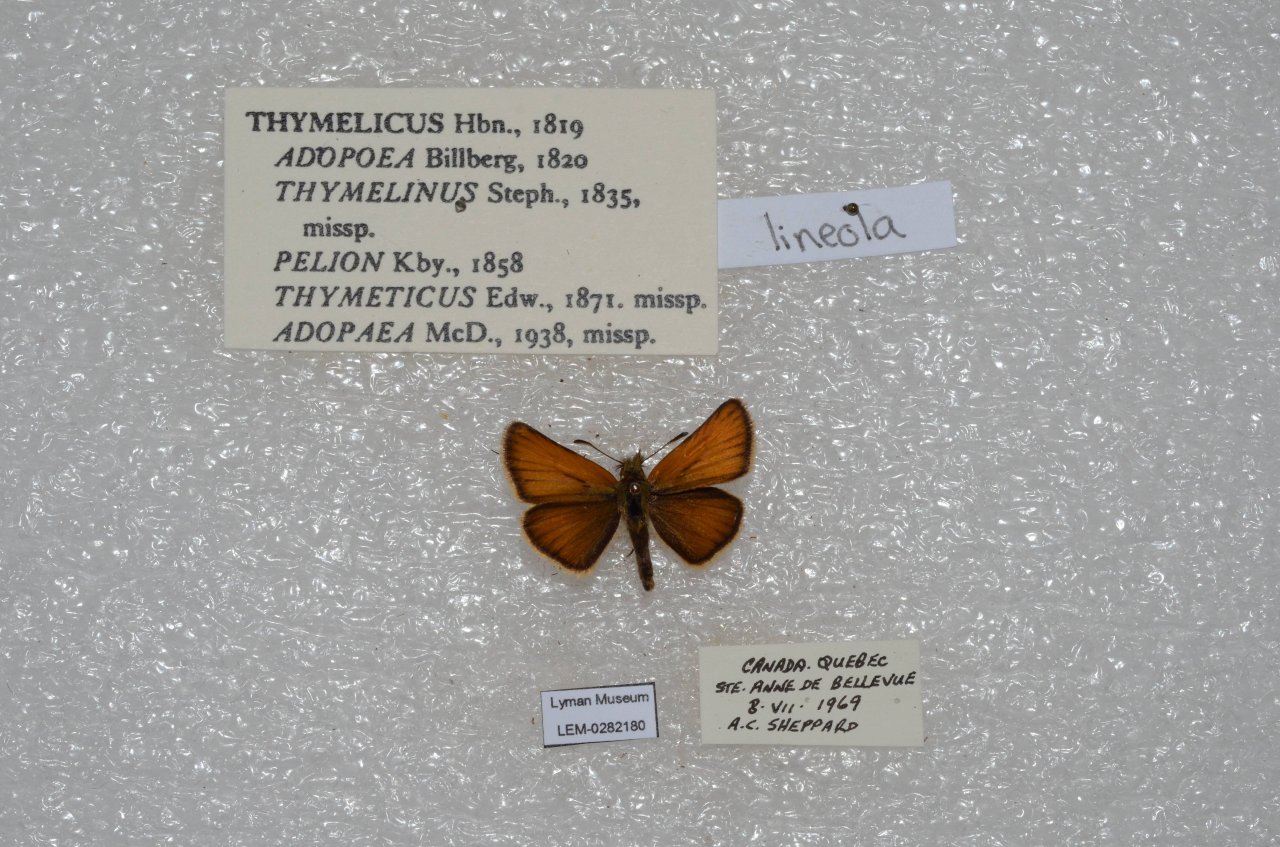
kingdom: Animalia
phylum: Arthropoda
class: Insecta
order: Lepidoptera
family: Hesperiidae
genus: Thymelicus
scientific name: Thymelicus lineola
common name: European Skipper
